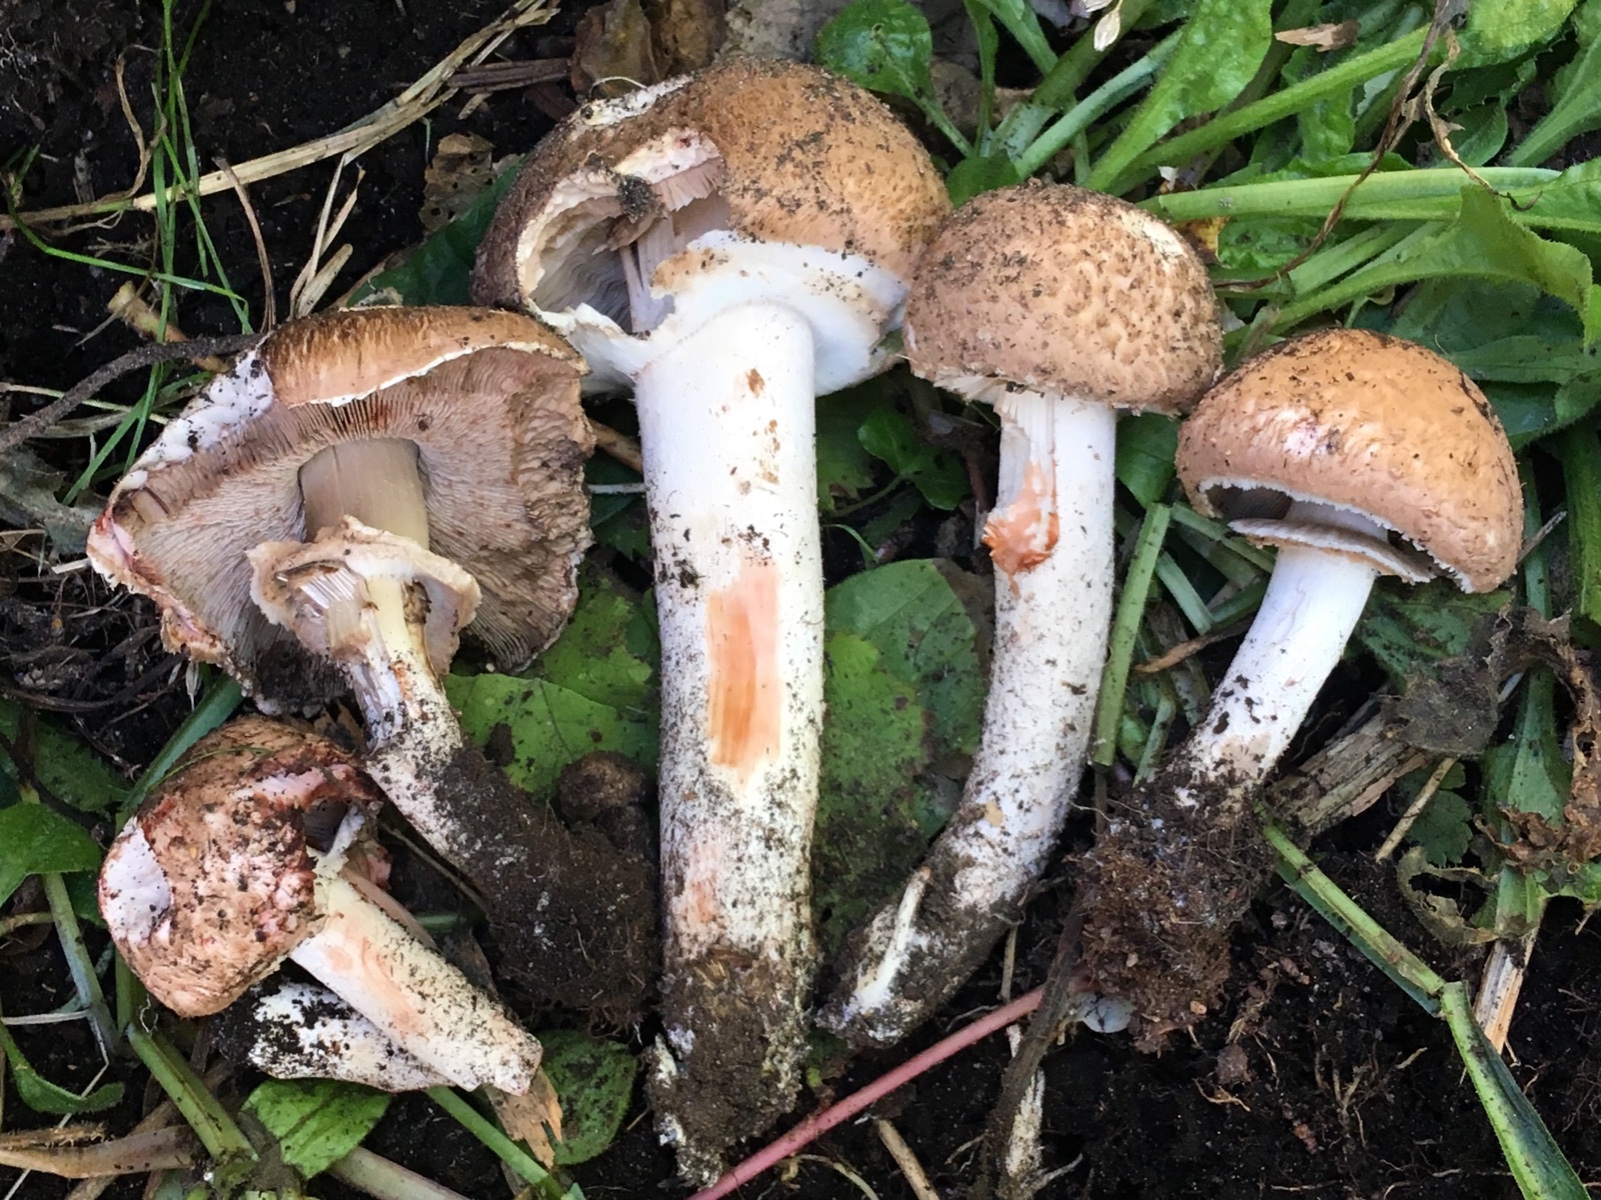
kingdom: Fungi
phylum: Basidiomycota
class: Agaricomycetes
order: Agaricales
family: Agaricaceae
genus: Agaricus
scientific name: Agaricus
